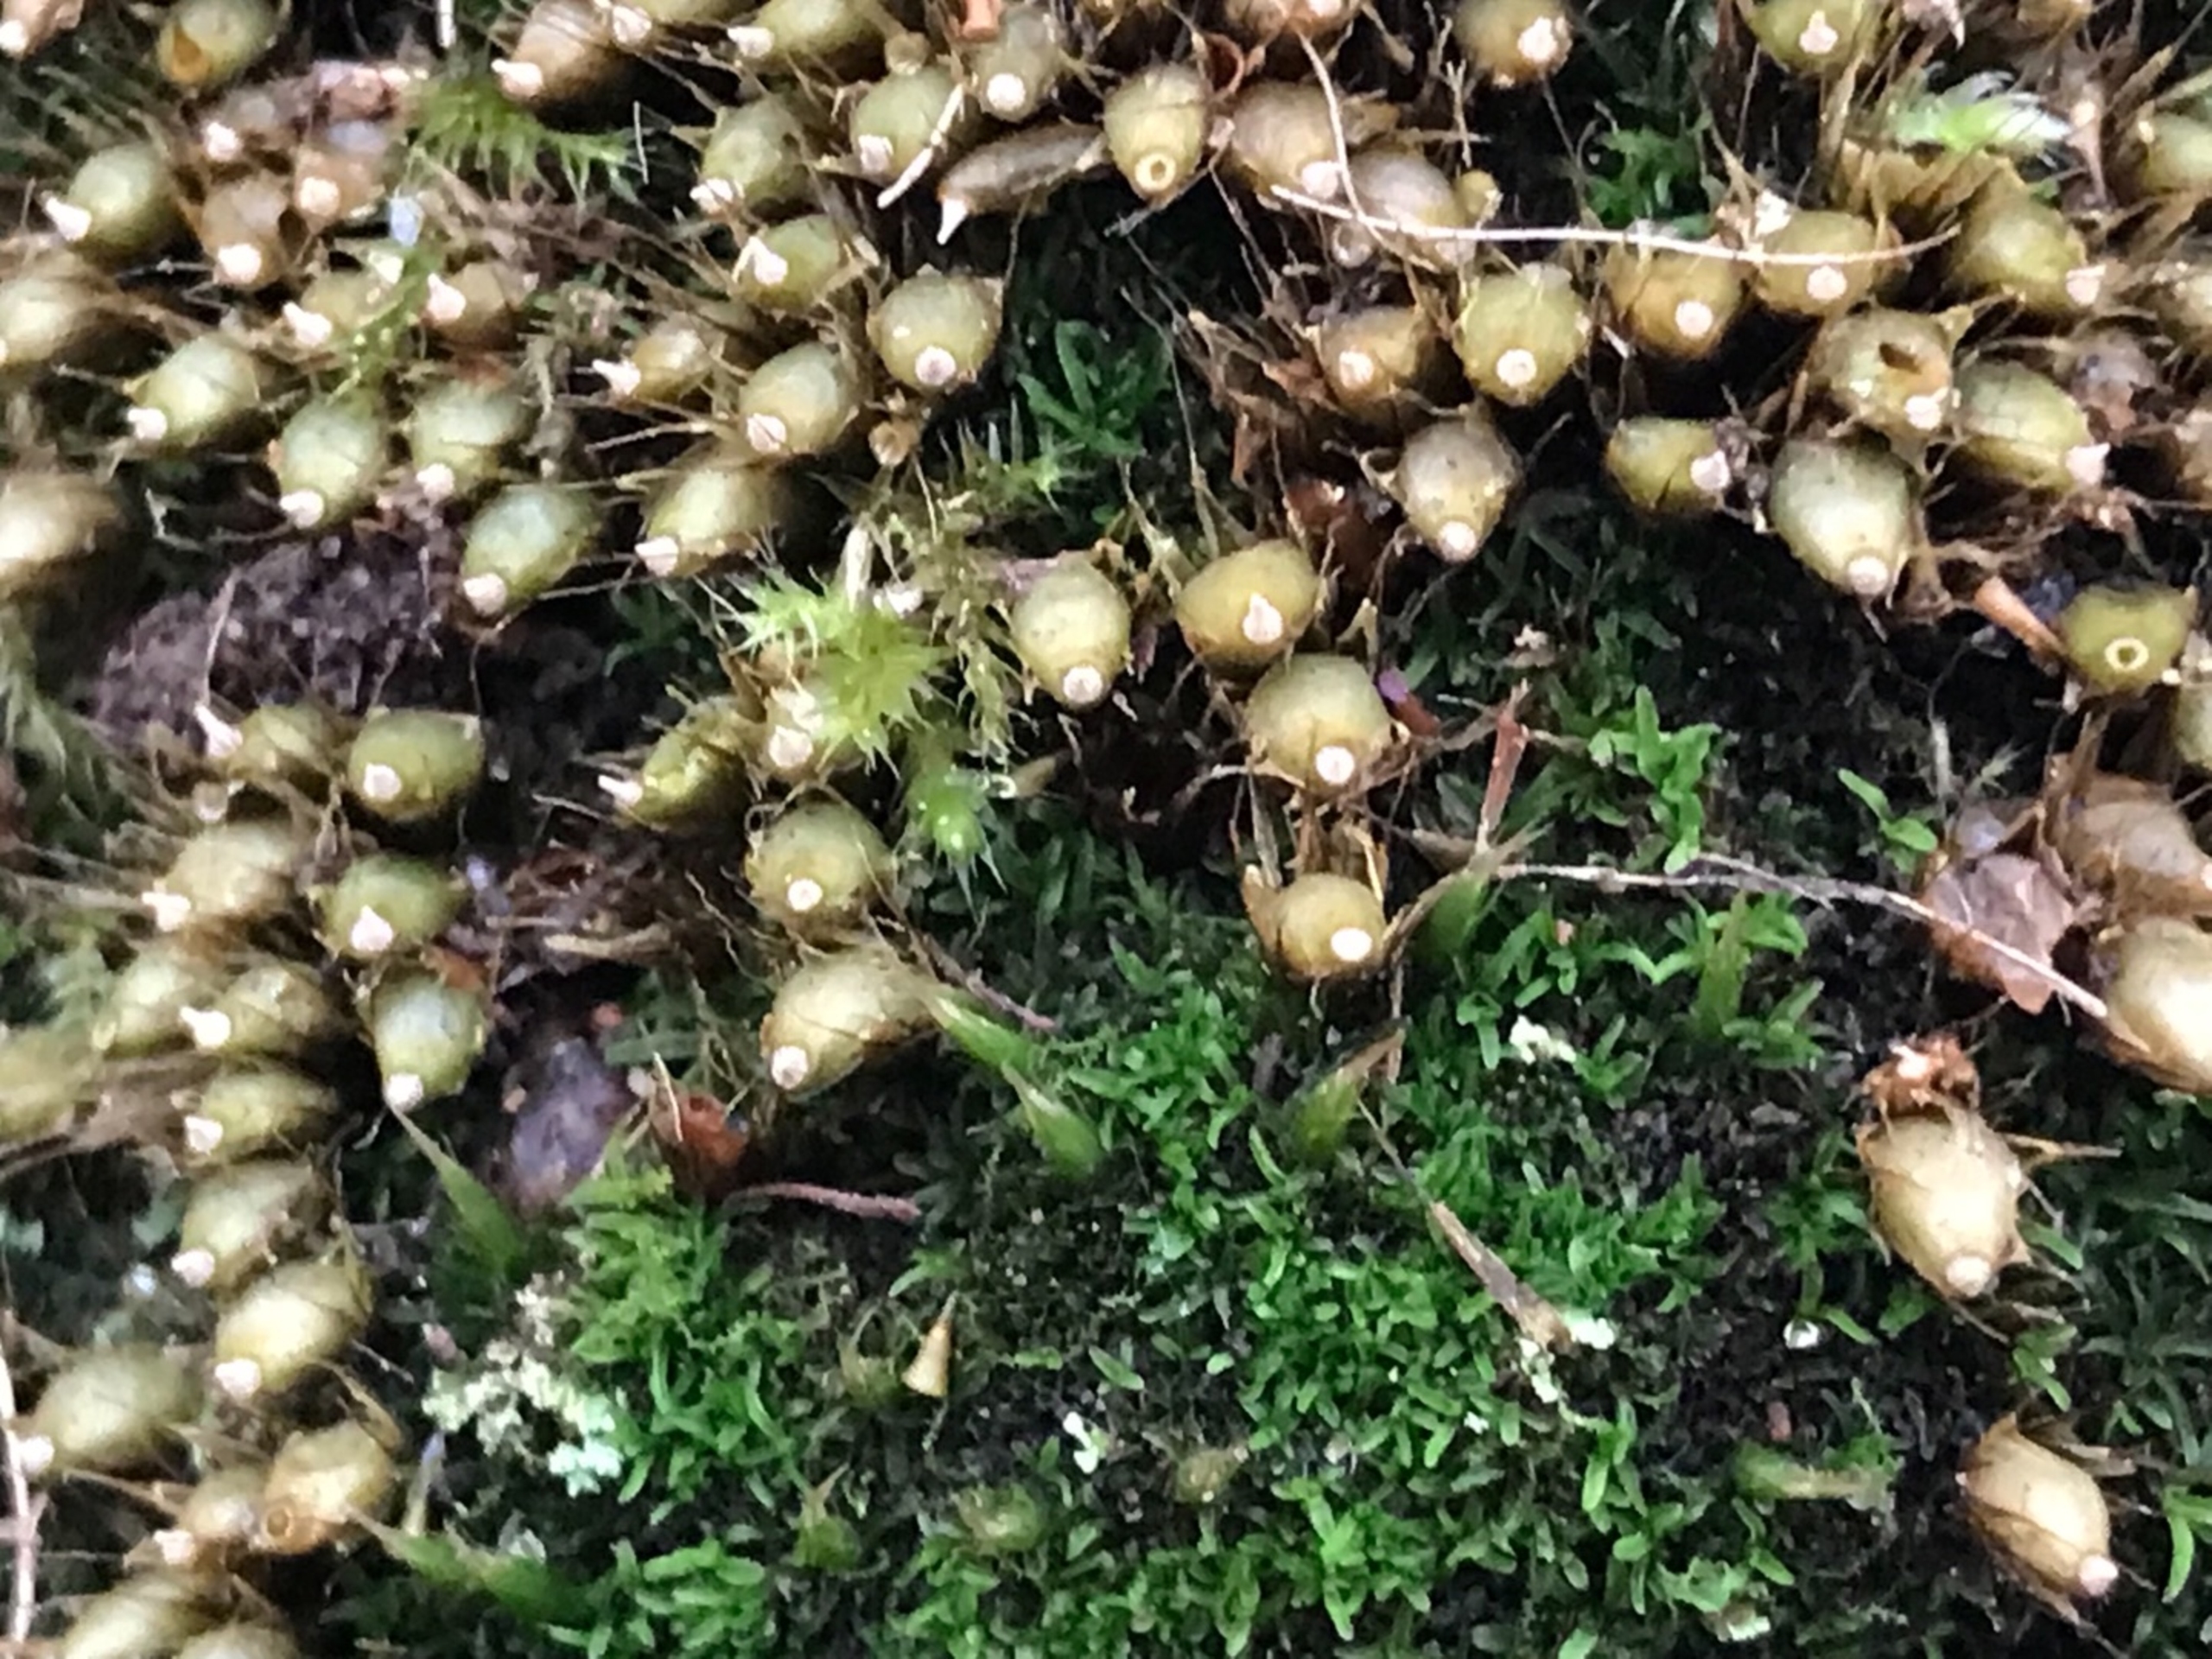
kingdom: Plantae
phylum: Bryophyta
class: Bryopsida
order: Diphysciales
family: Diphysciaceae
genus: Diphyscium
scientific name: Diphyscium foliosum
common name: Stilkløs sækkapsel
